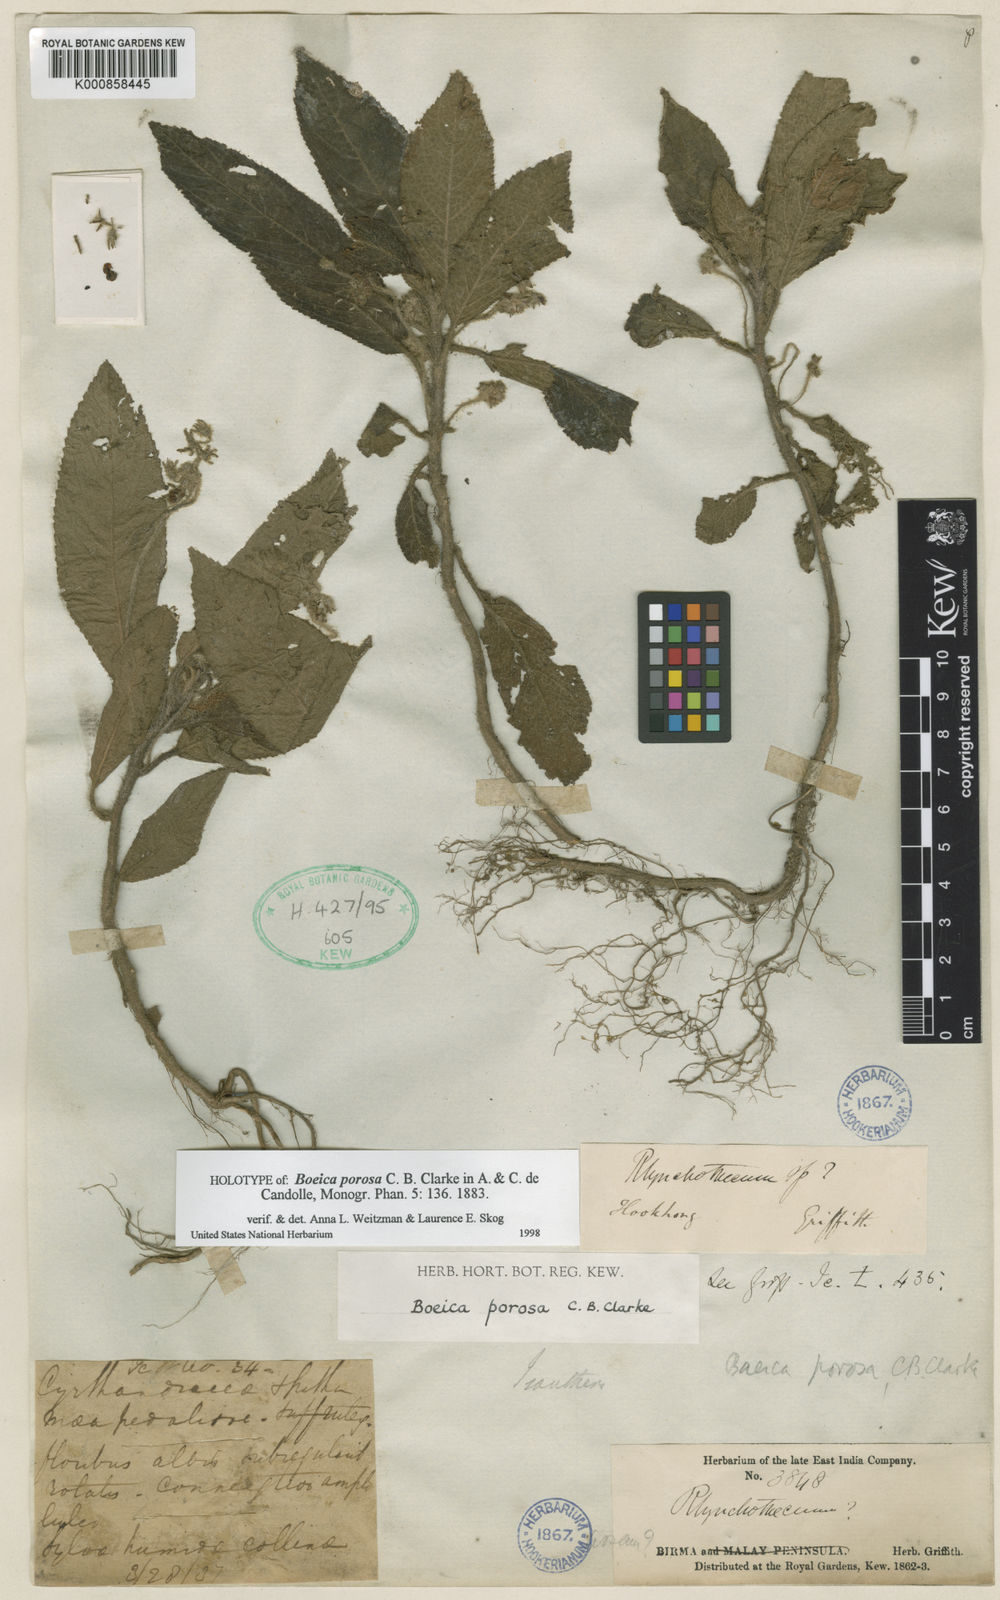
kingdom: Plantae
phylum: Tracheophyta
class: Magnoliopsida
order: Lamiales
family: Gesneriaceae
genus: Boeica
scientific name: Boeica porosa
